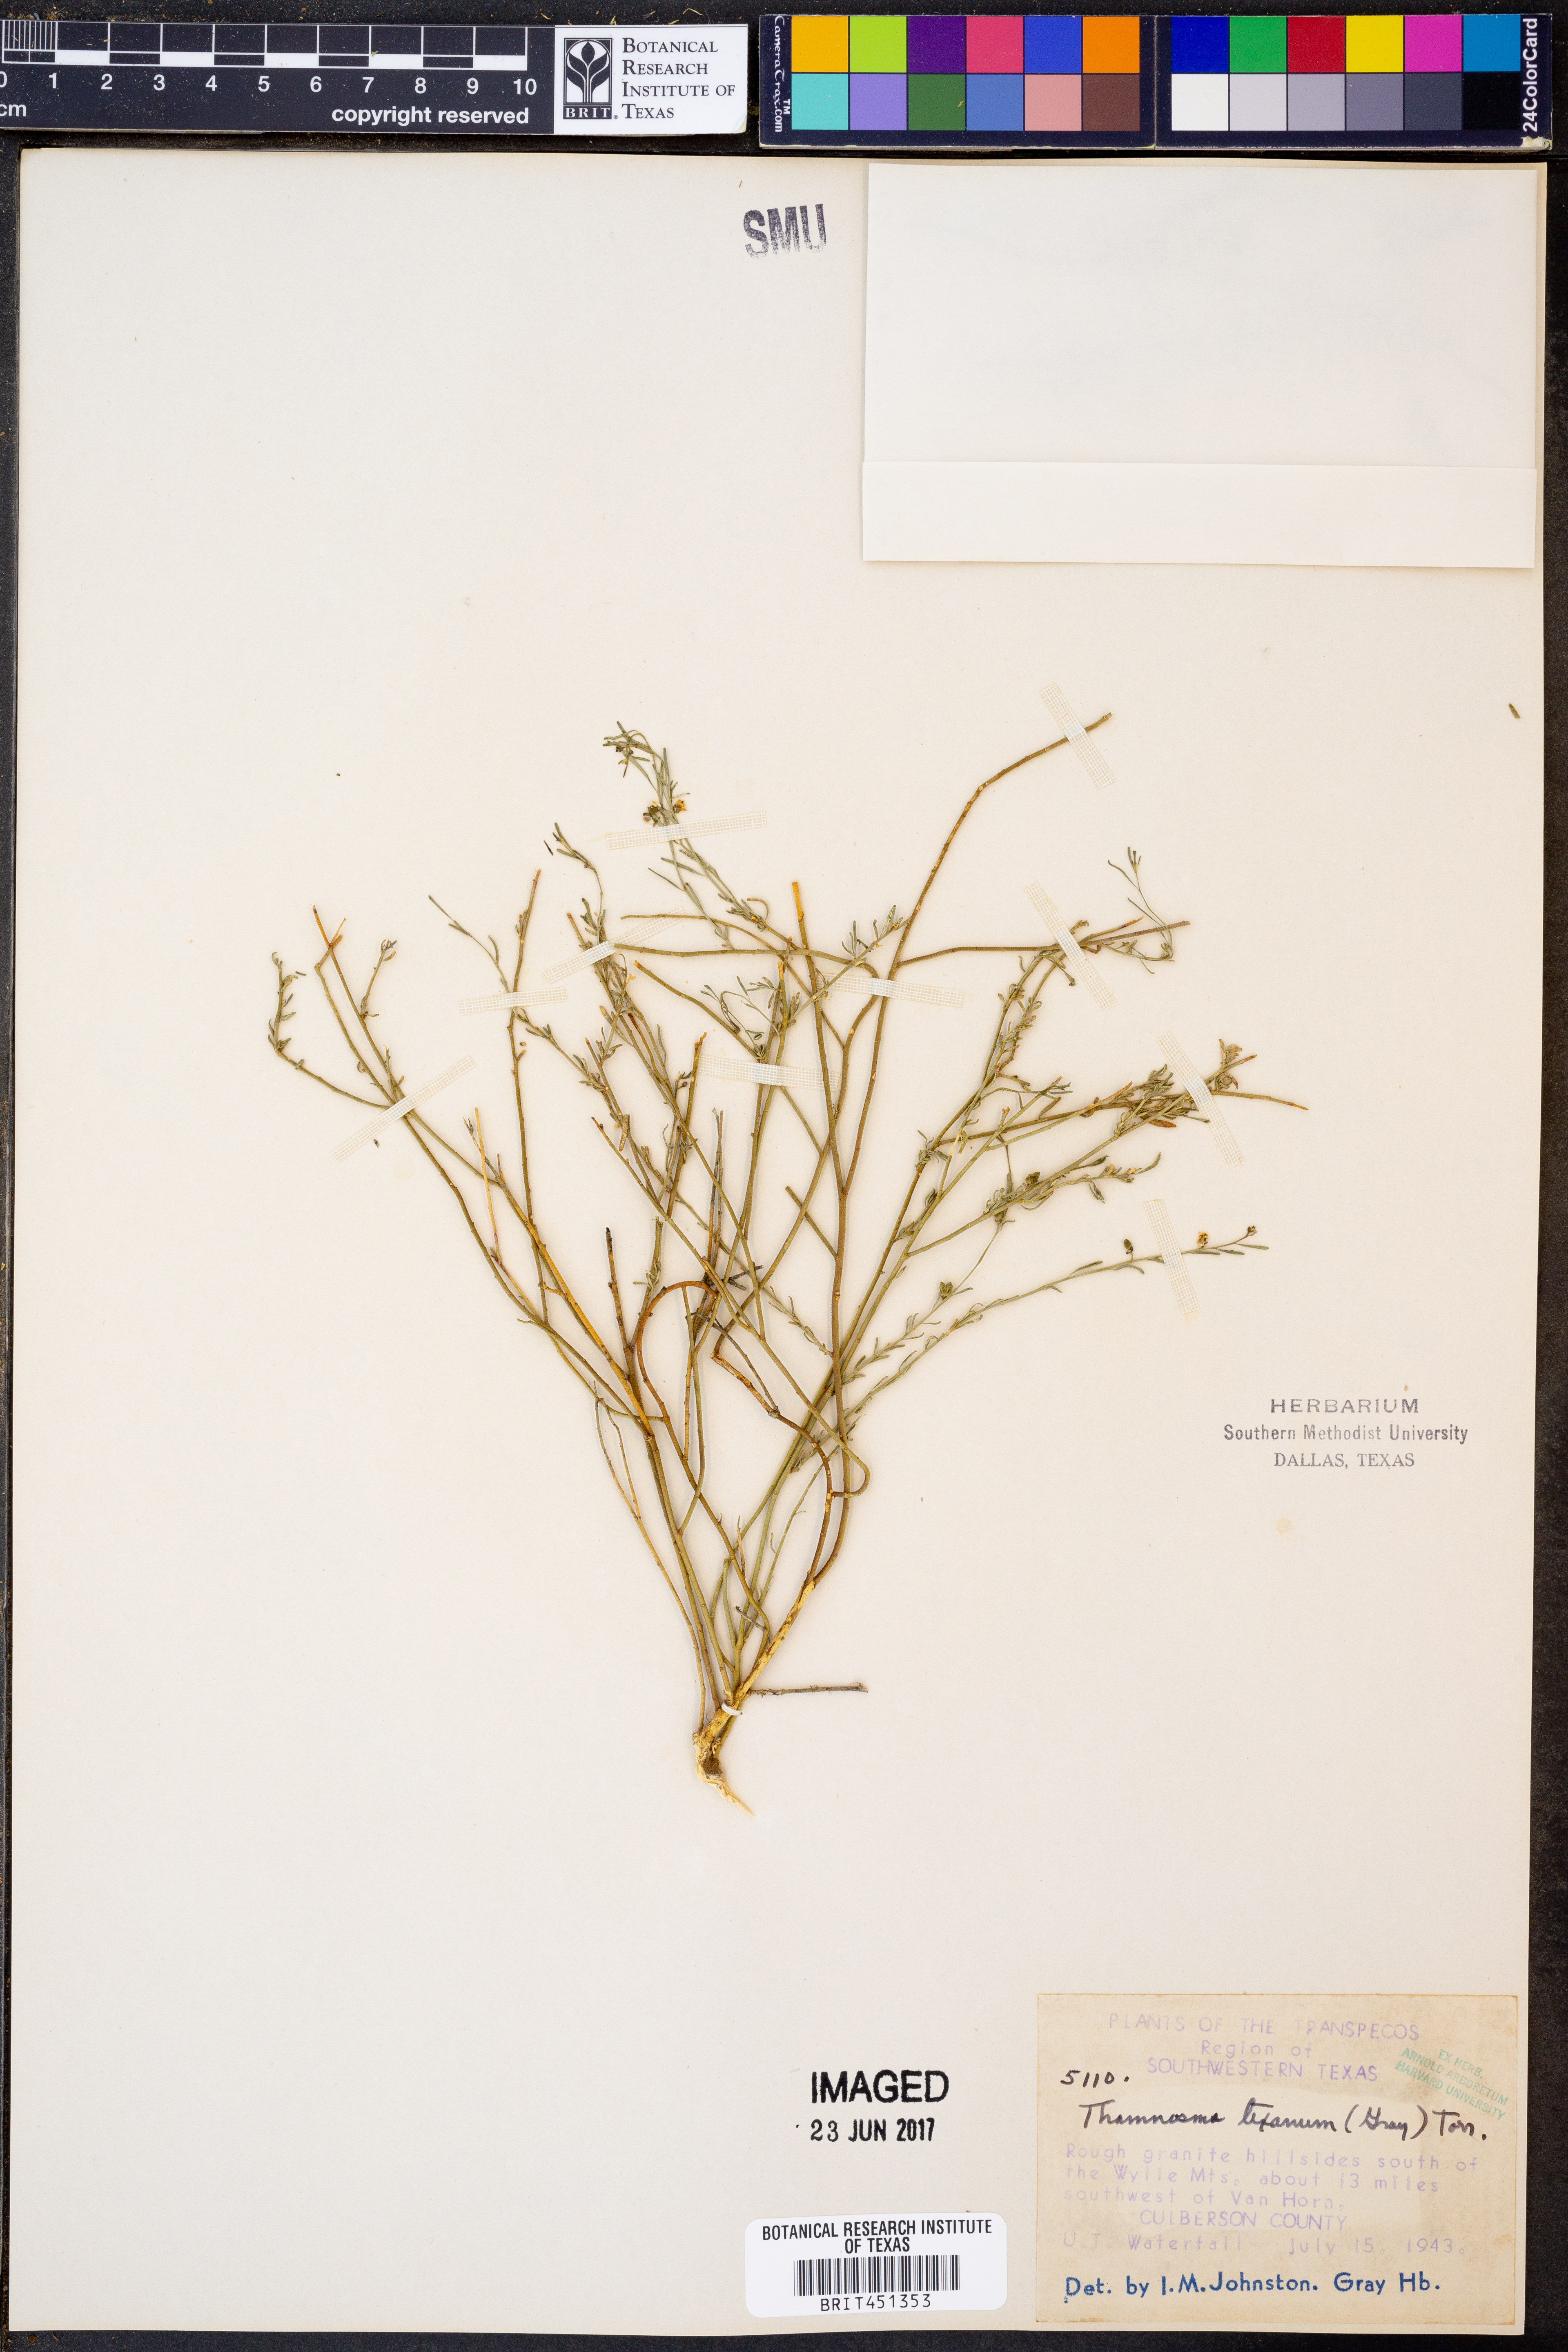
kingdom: Plantae
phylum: Tracheophyta
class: Magnoliopsida
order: Sapindales
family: Rutaceae
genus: Thamnosma
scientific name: Thamnosma texana
